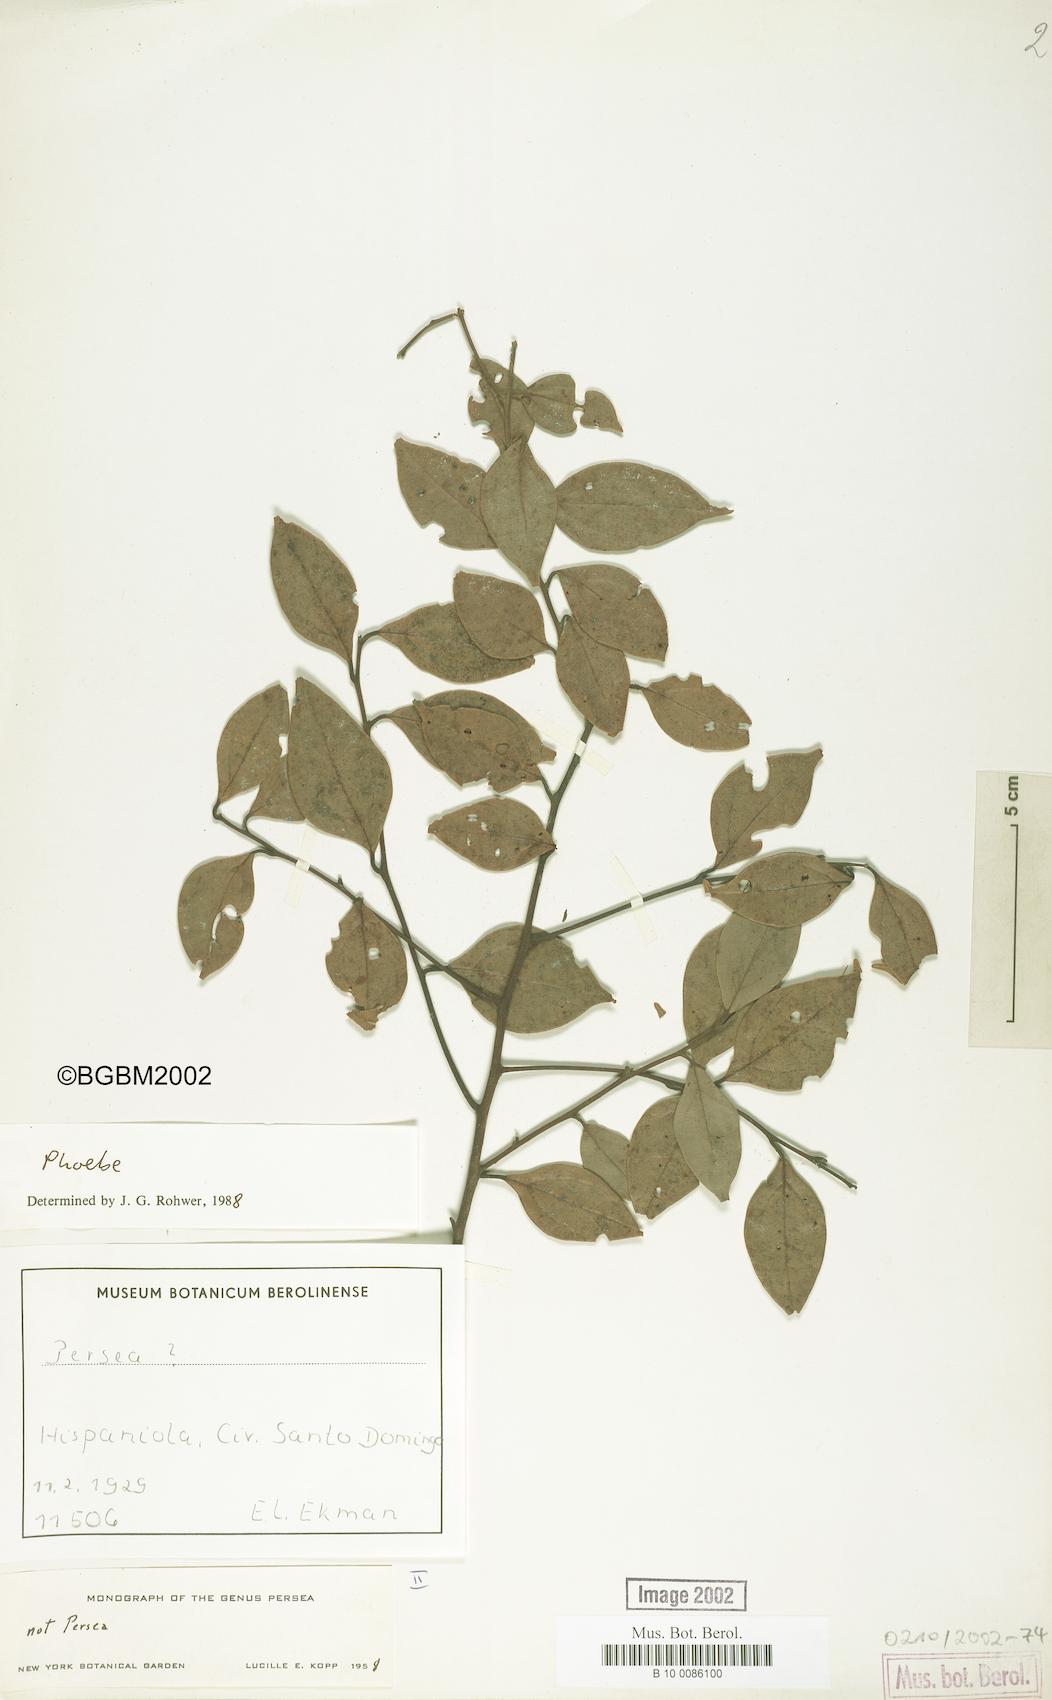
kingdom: Plantae
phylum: Tracheophyta
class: Magnoliopsida
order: Laurales
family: Lauraceae
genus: Phoebe
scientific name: Phoebe
